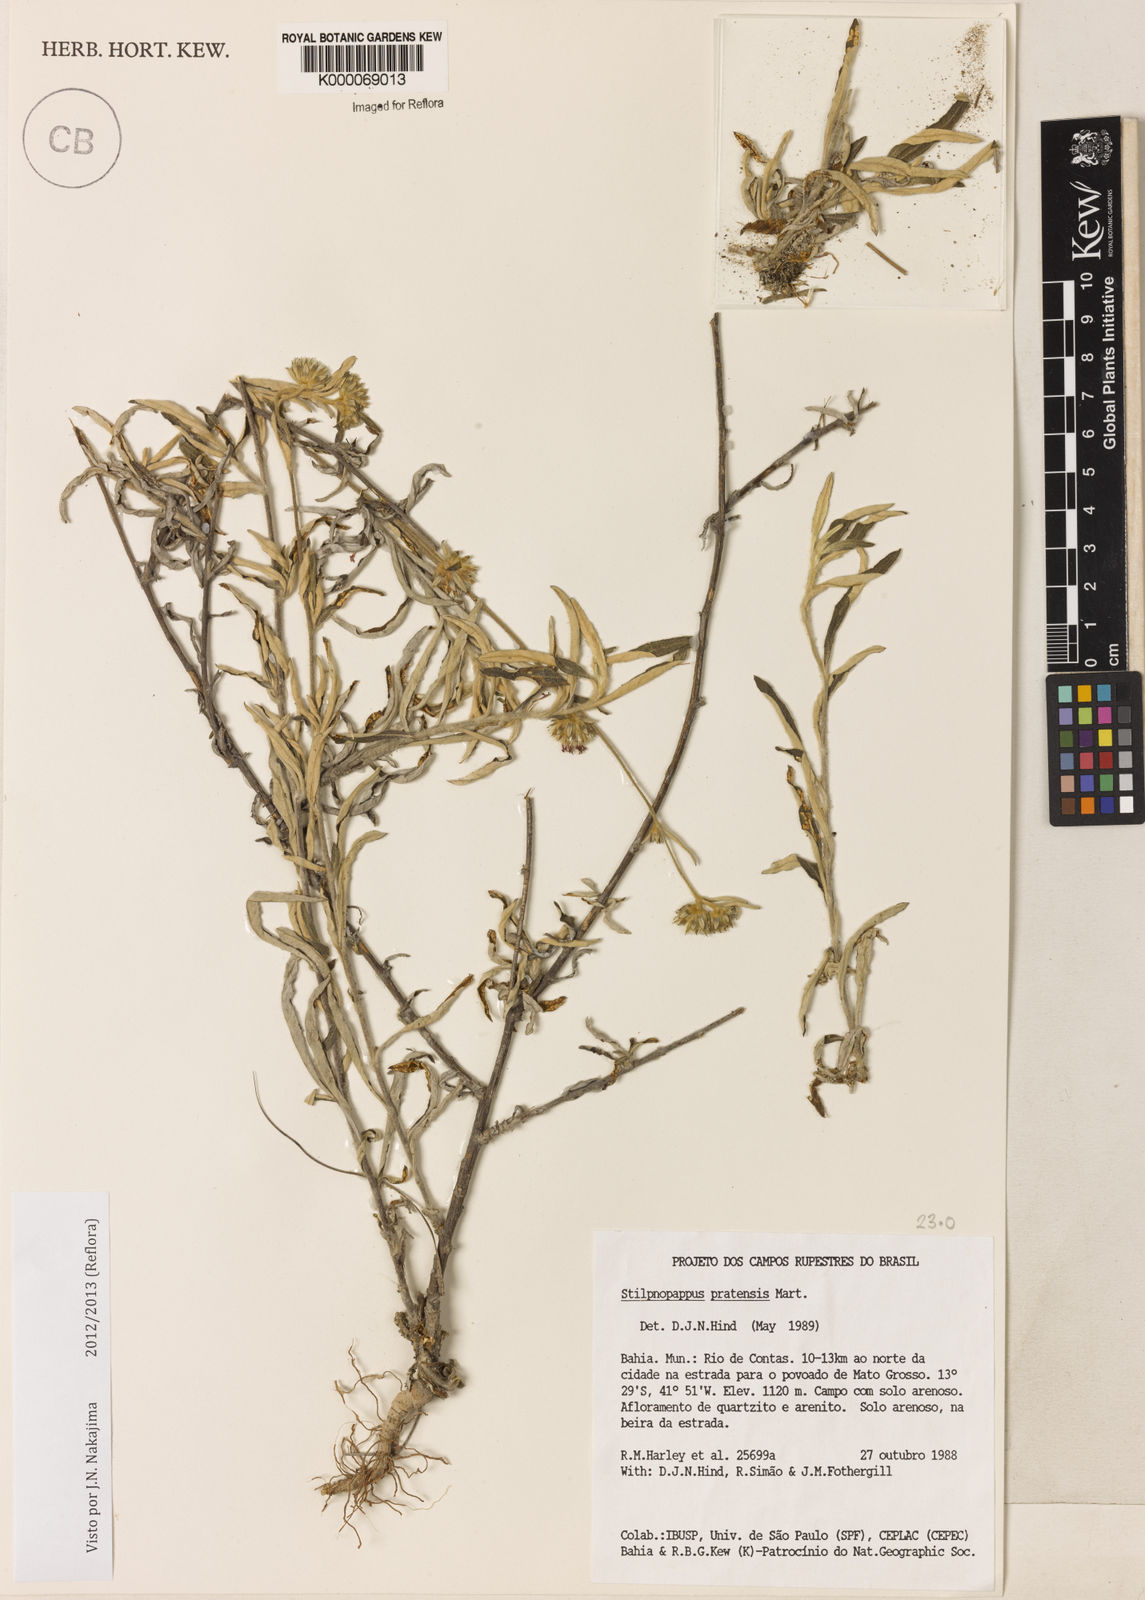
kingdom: Plantae
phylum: Tracheophyta
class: Magnoliopsida
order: Asterales
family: Asteraceae
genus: Stilpnopappus
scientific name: Stilpnopappus pratensis
